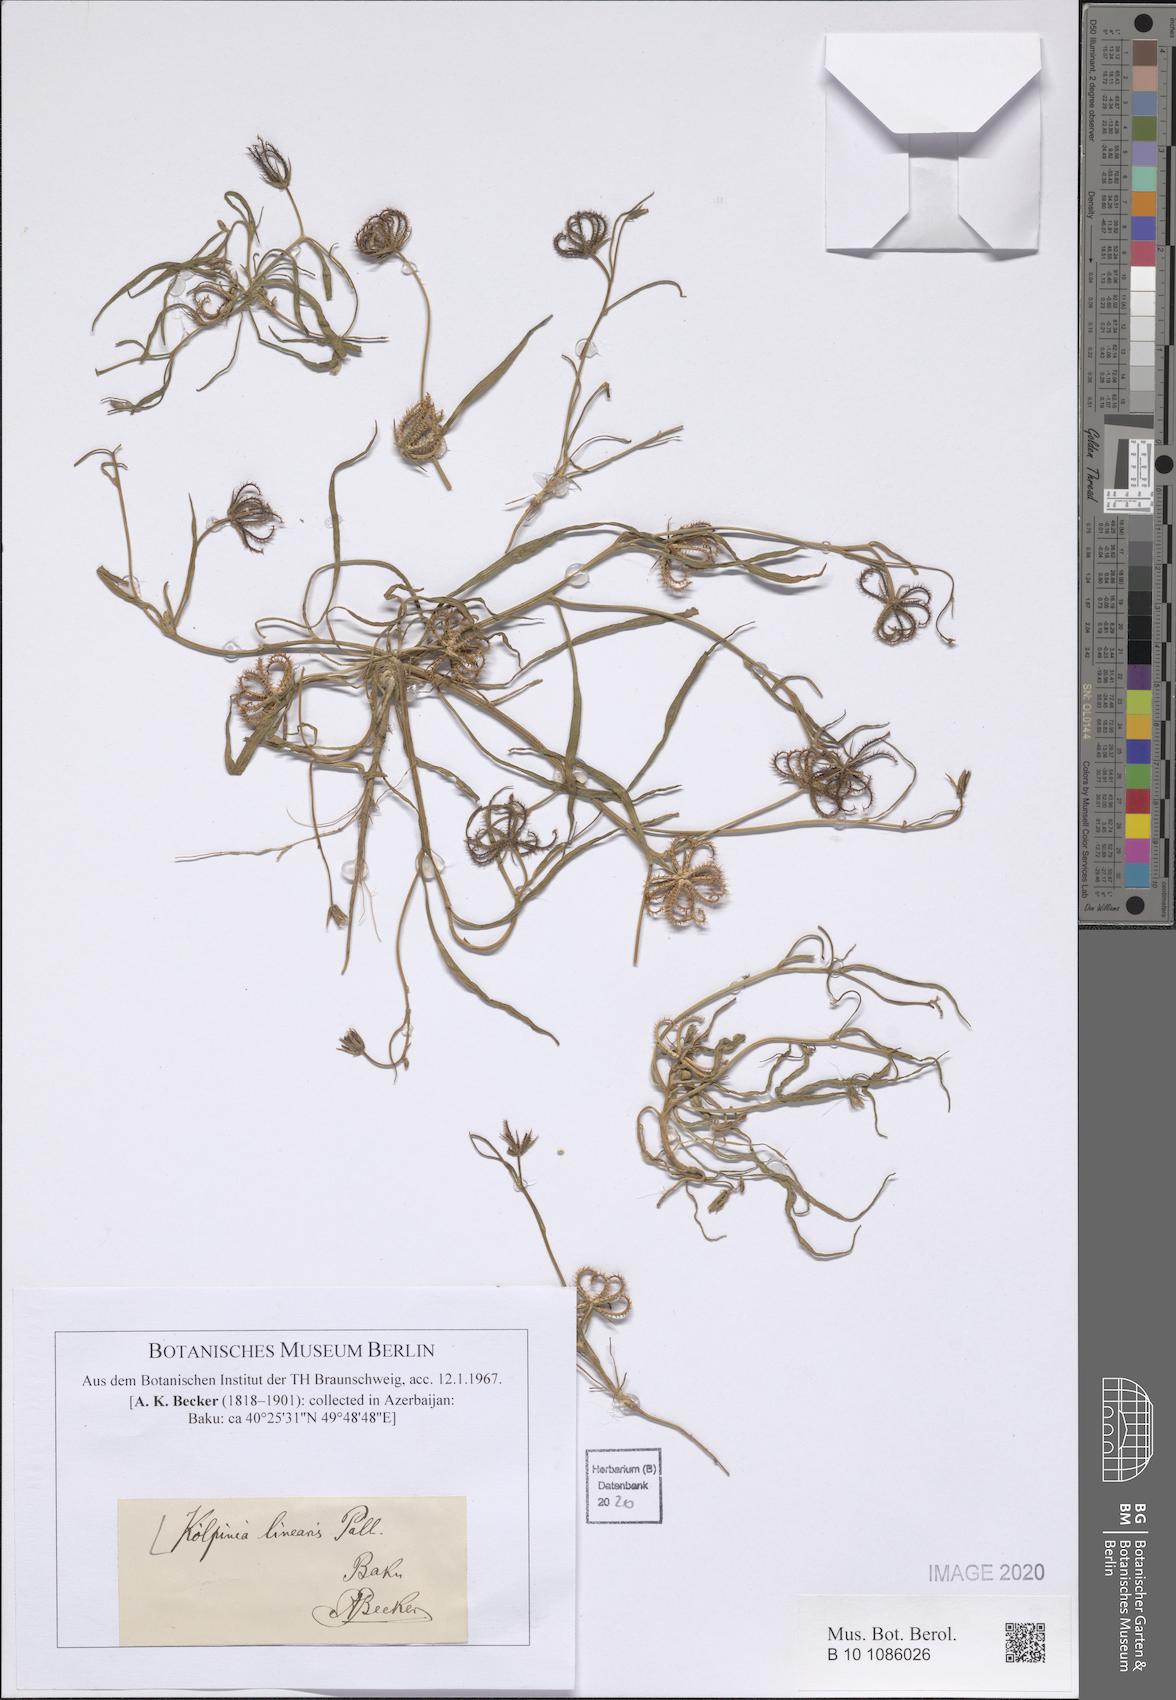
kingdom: Plantae
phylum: Tracheophyta
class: Magnoliopsida
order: Asterales
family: Asteraceae
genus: Koelpinia
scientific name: Koelpinia linearis
